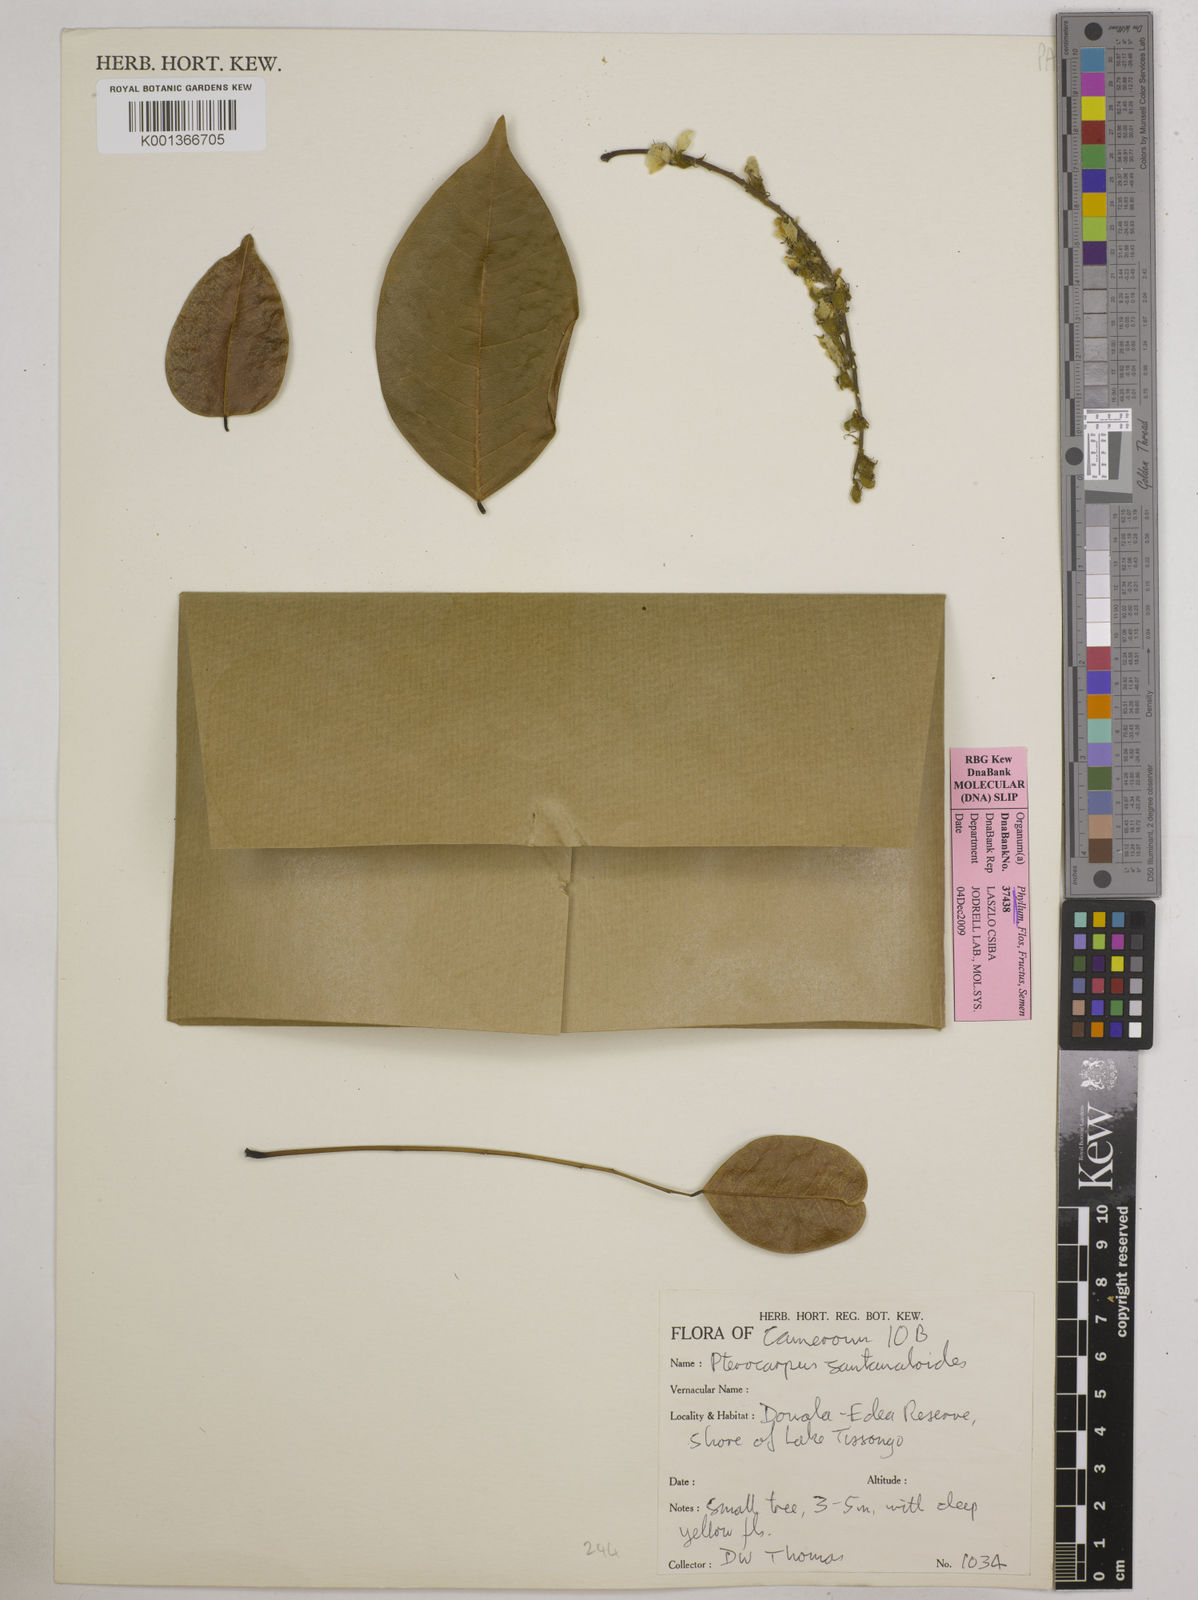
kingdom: Plantae
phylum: Tracheophyta
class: Magnoliopsida
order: Fabales
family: Fabaceae
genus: Pterocarpus
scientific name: Pterocarpus santalinoides
